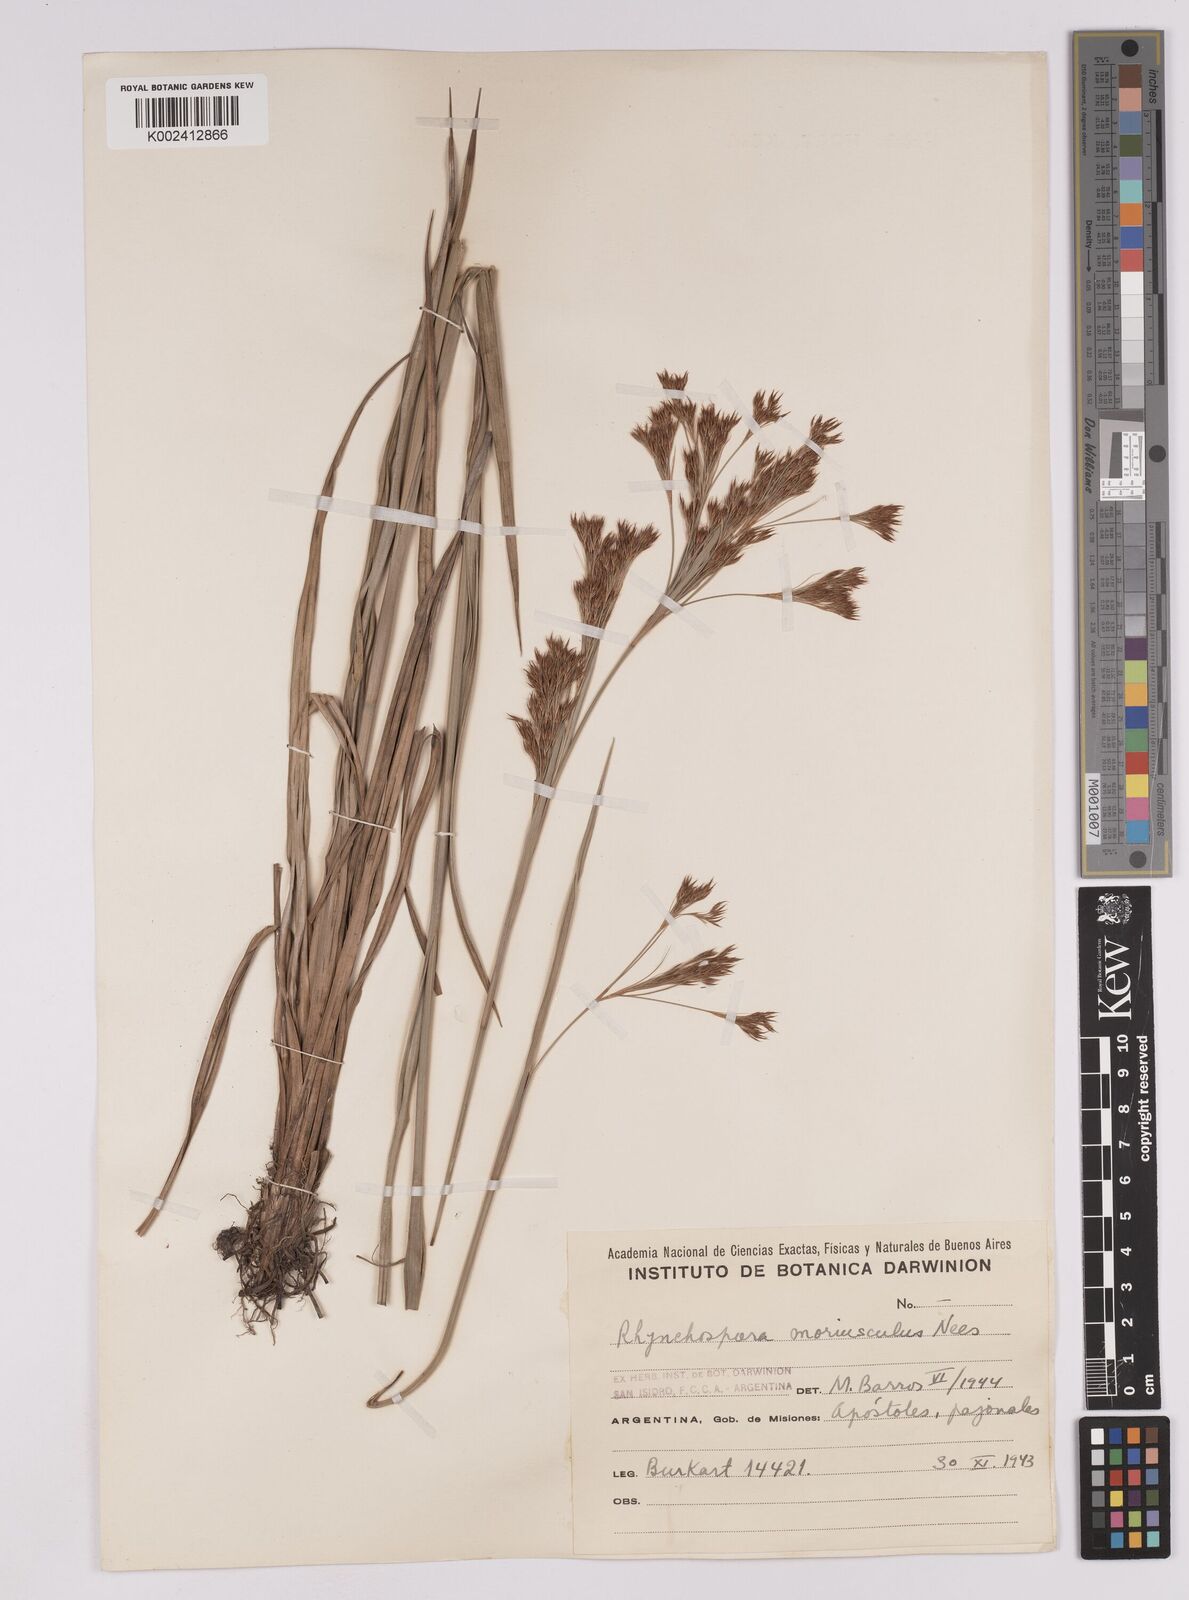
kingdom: Plantae
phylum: Tracheophyta
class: Liliopsida
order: Poales
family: Cyperaceae
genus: Rhynchospora
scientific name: Rhynchospora marisculus
